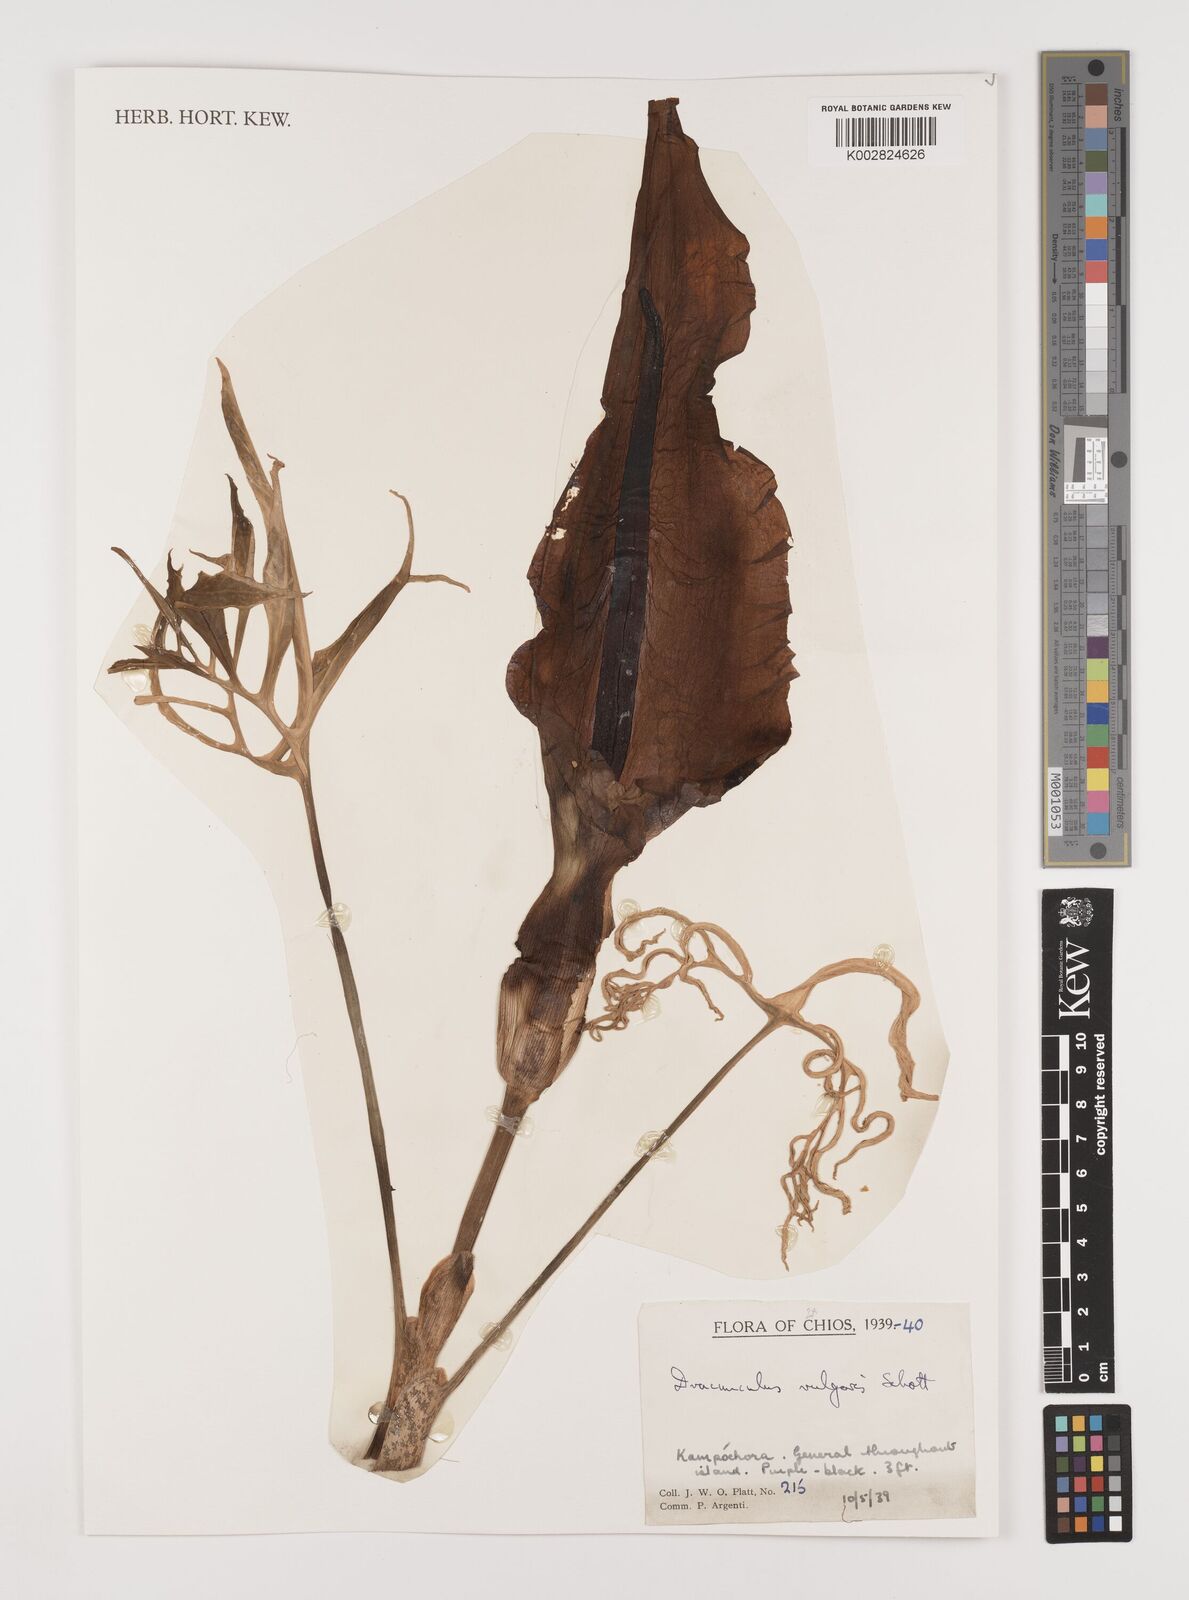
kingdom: Plantae
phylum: Tracheophyta
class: Liliopsida
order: Alismatales
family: Araceae
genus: Dracunculus
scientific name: Dracunculus vulgaris
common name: Dragon arum
